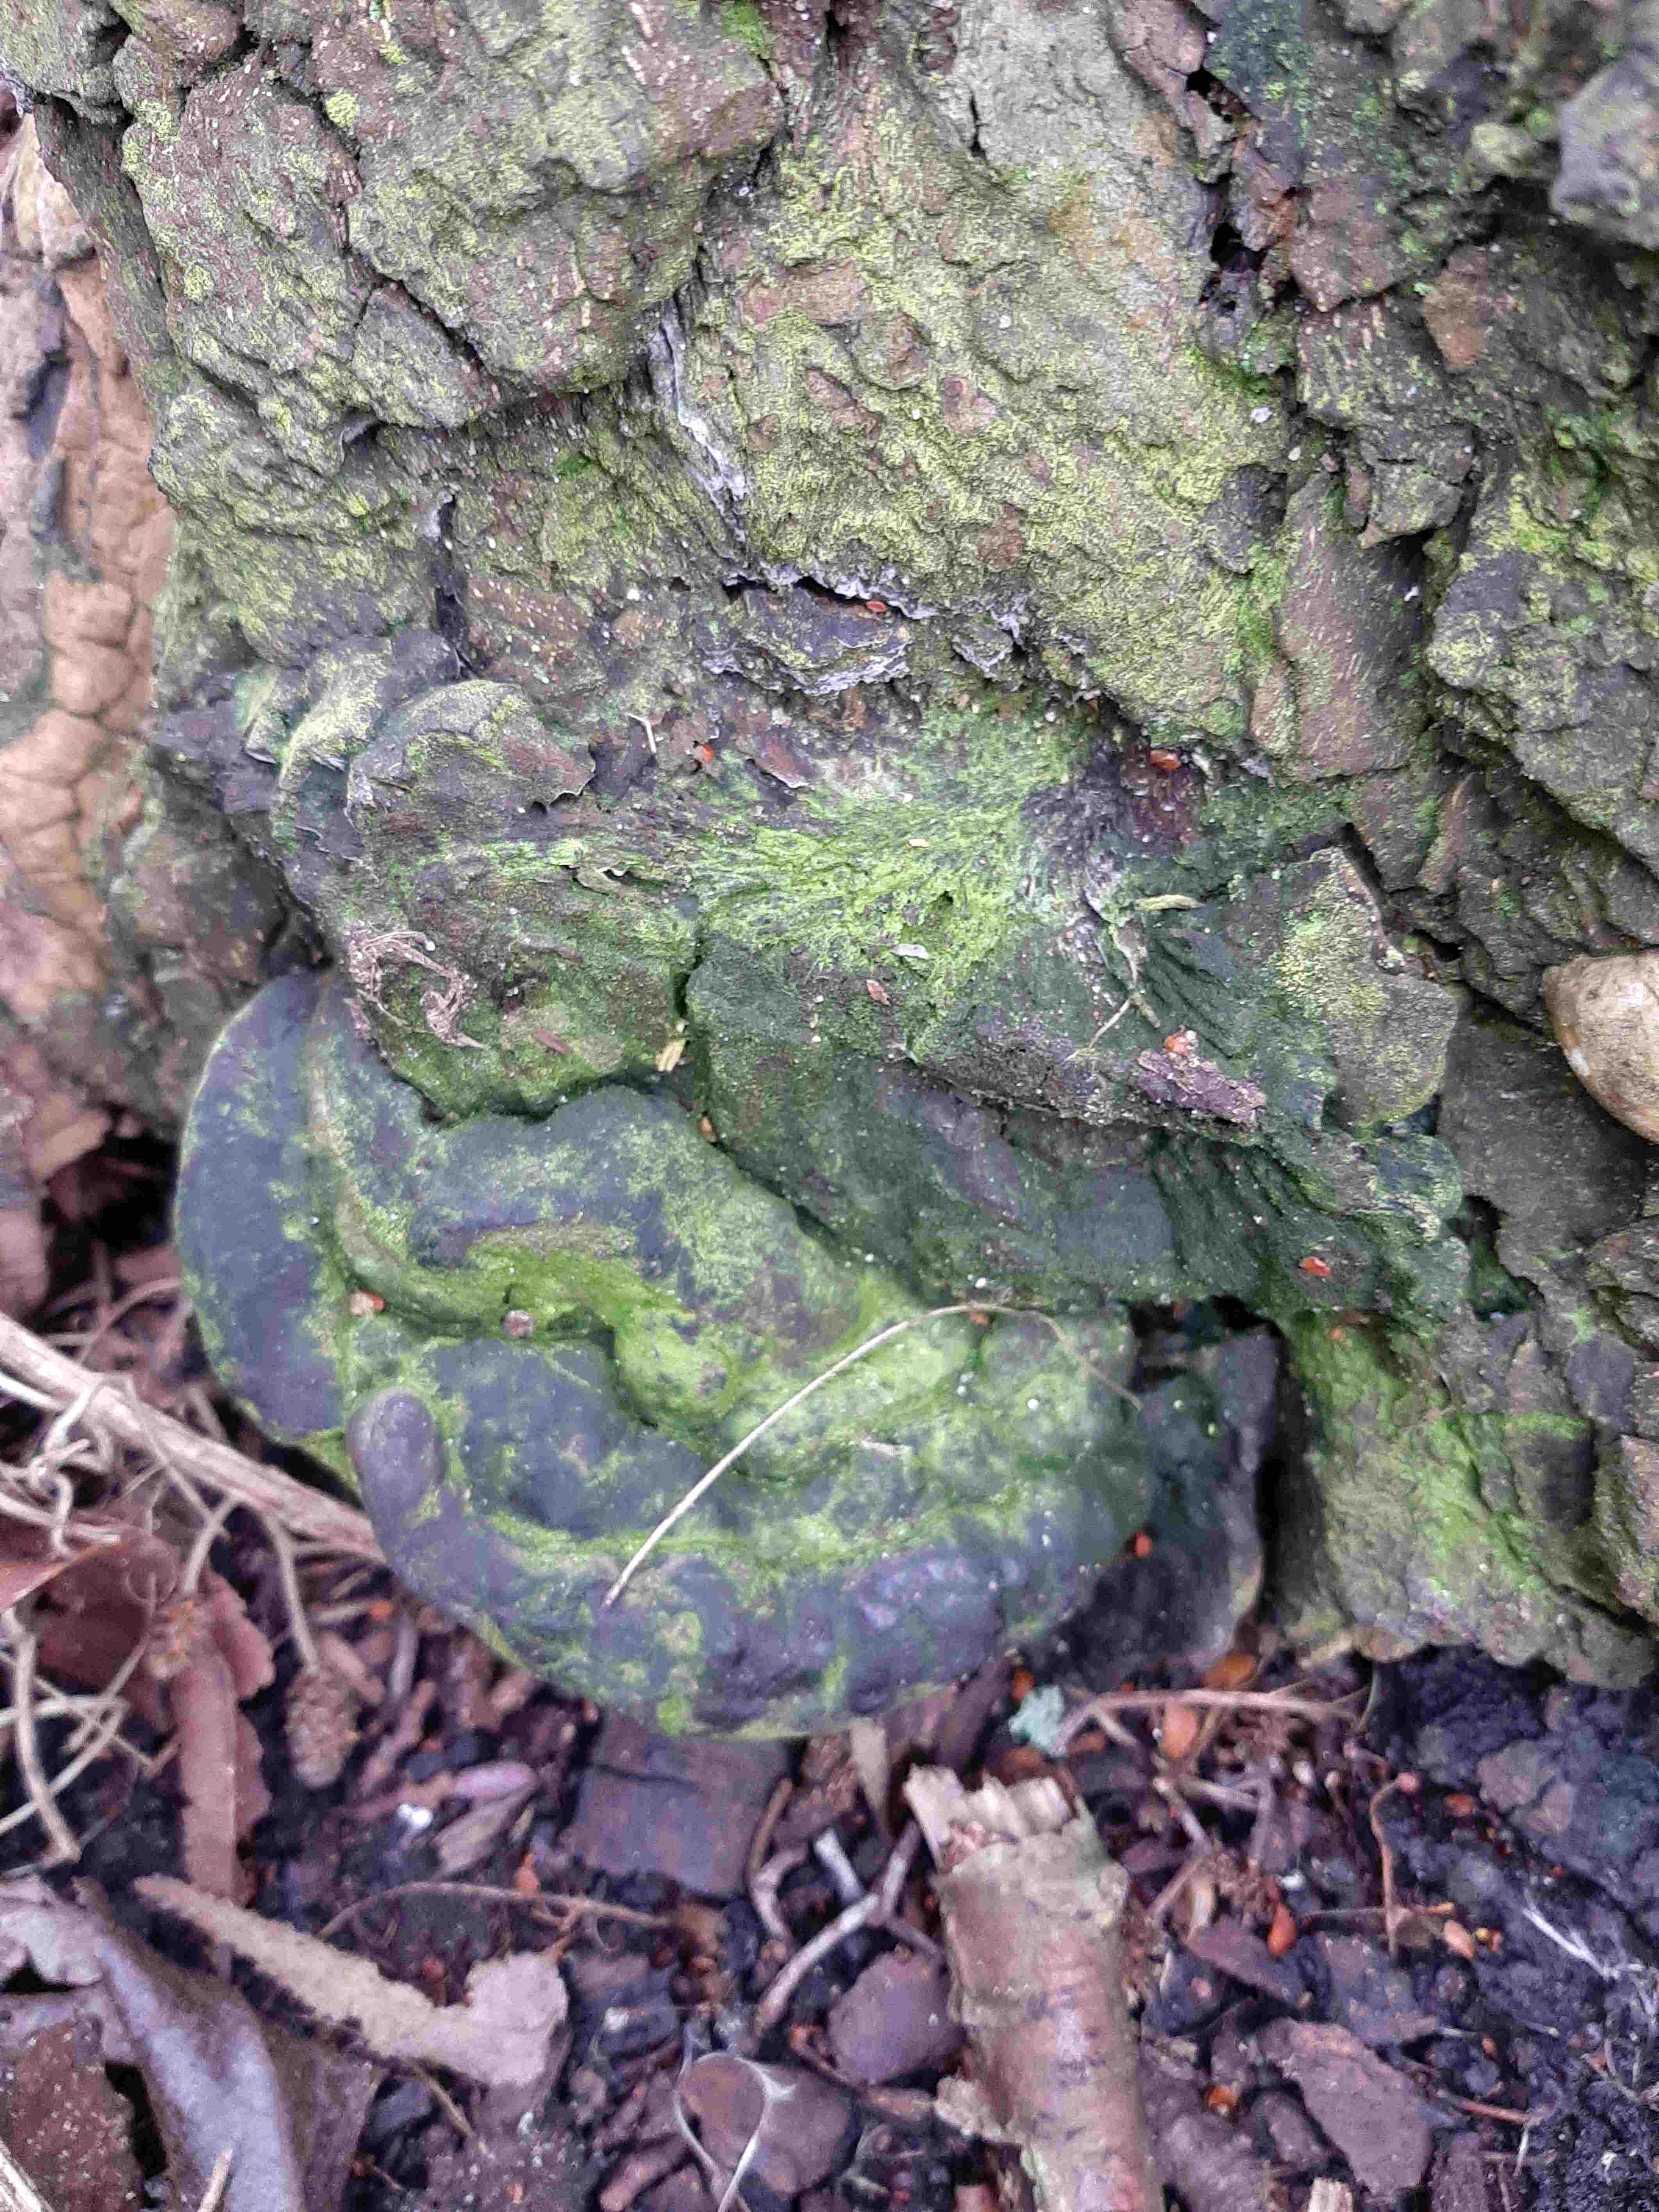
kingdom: Fungi
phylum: Basidiomycota
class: Agaricomycetes
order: Polyporales
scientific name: Polyporales
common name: poresvampordenen
